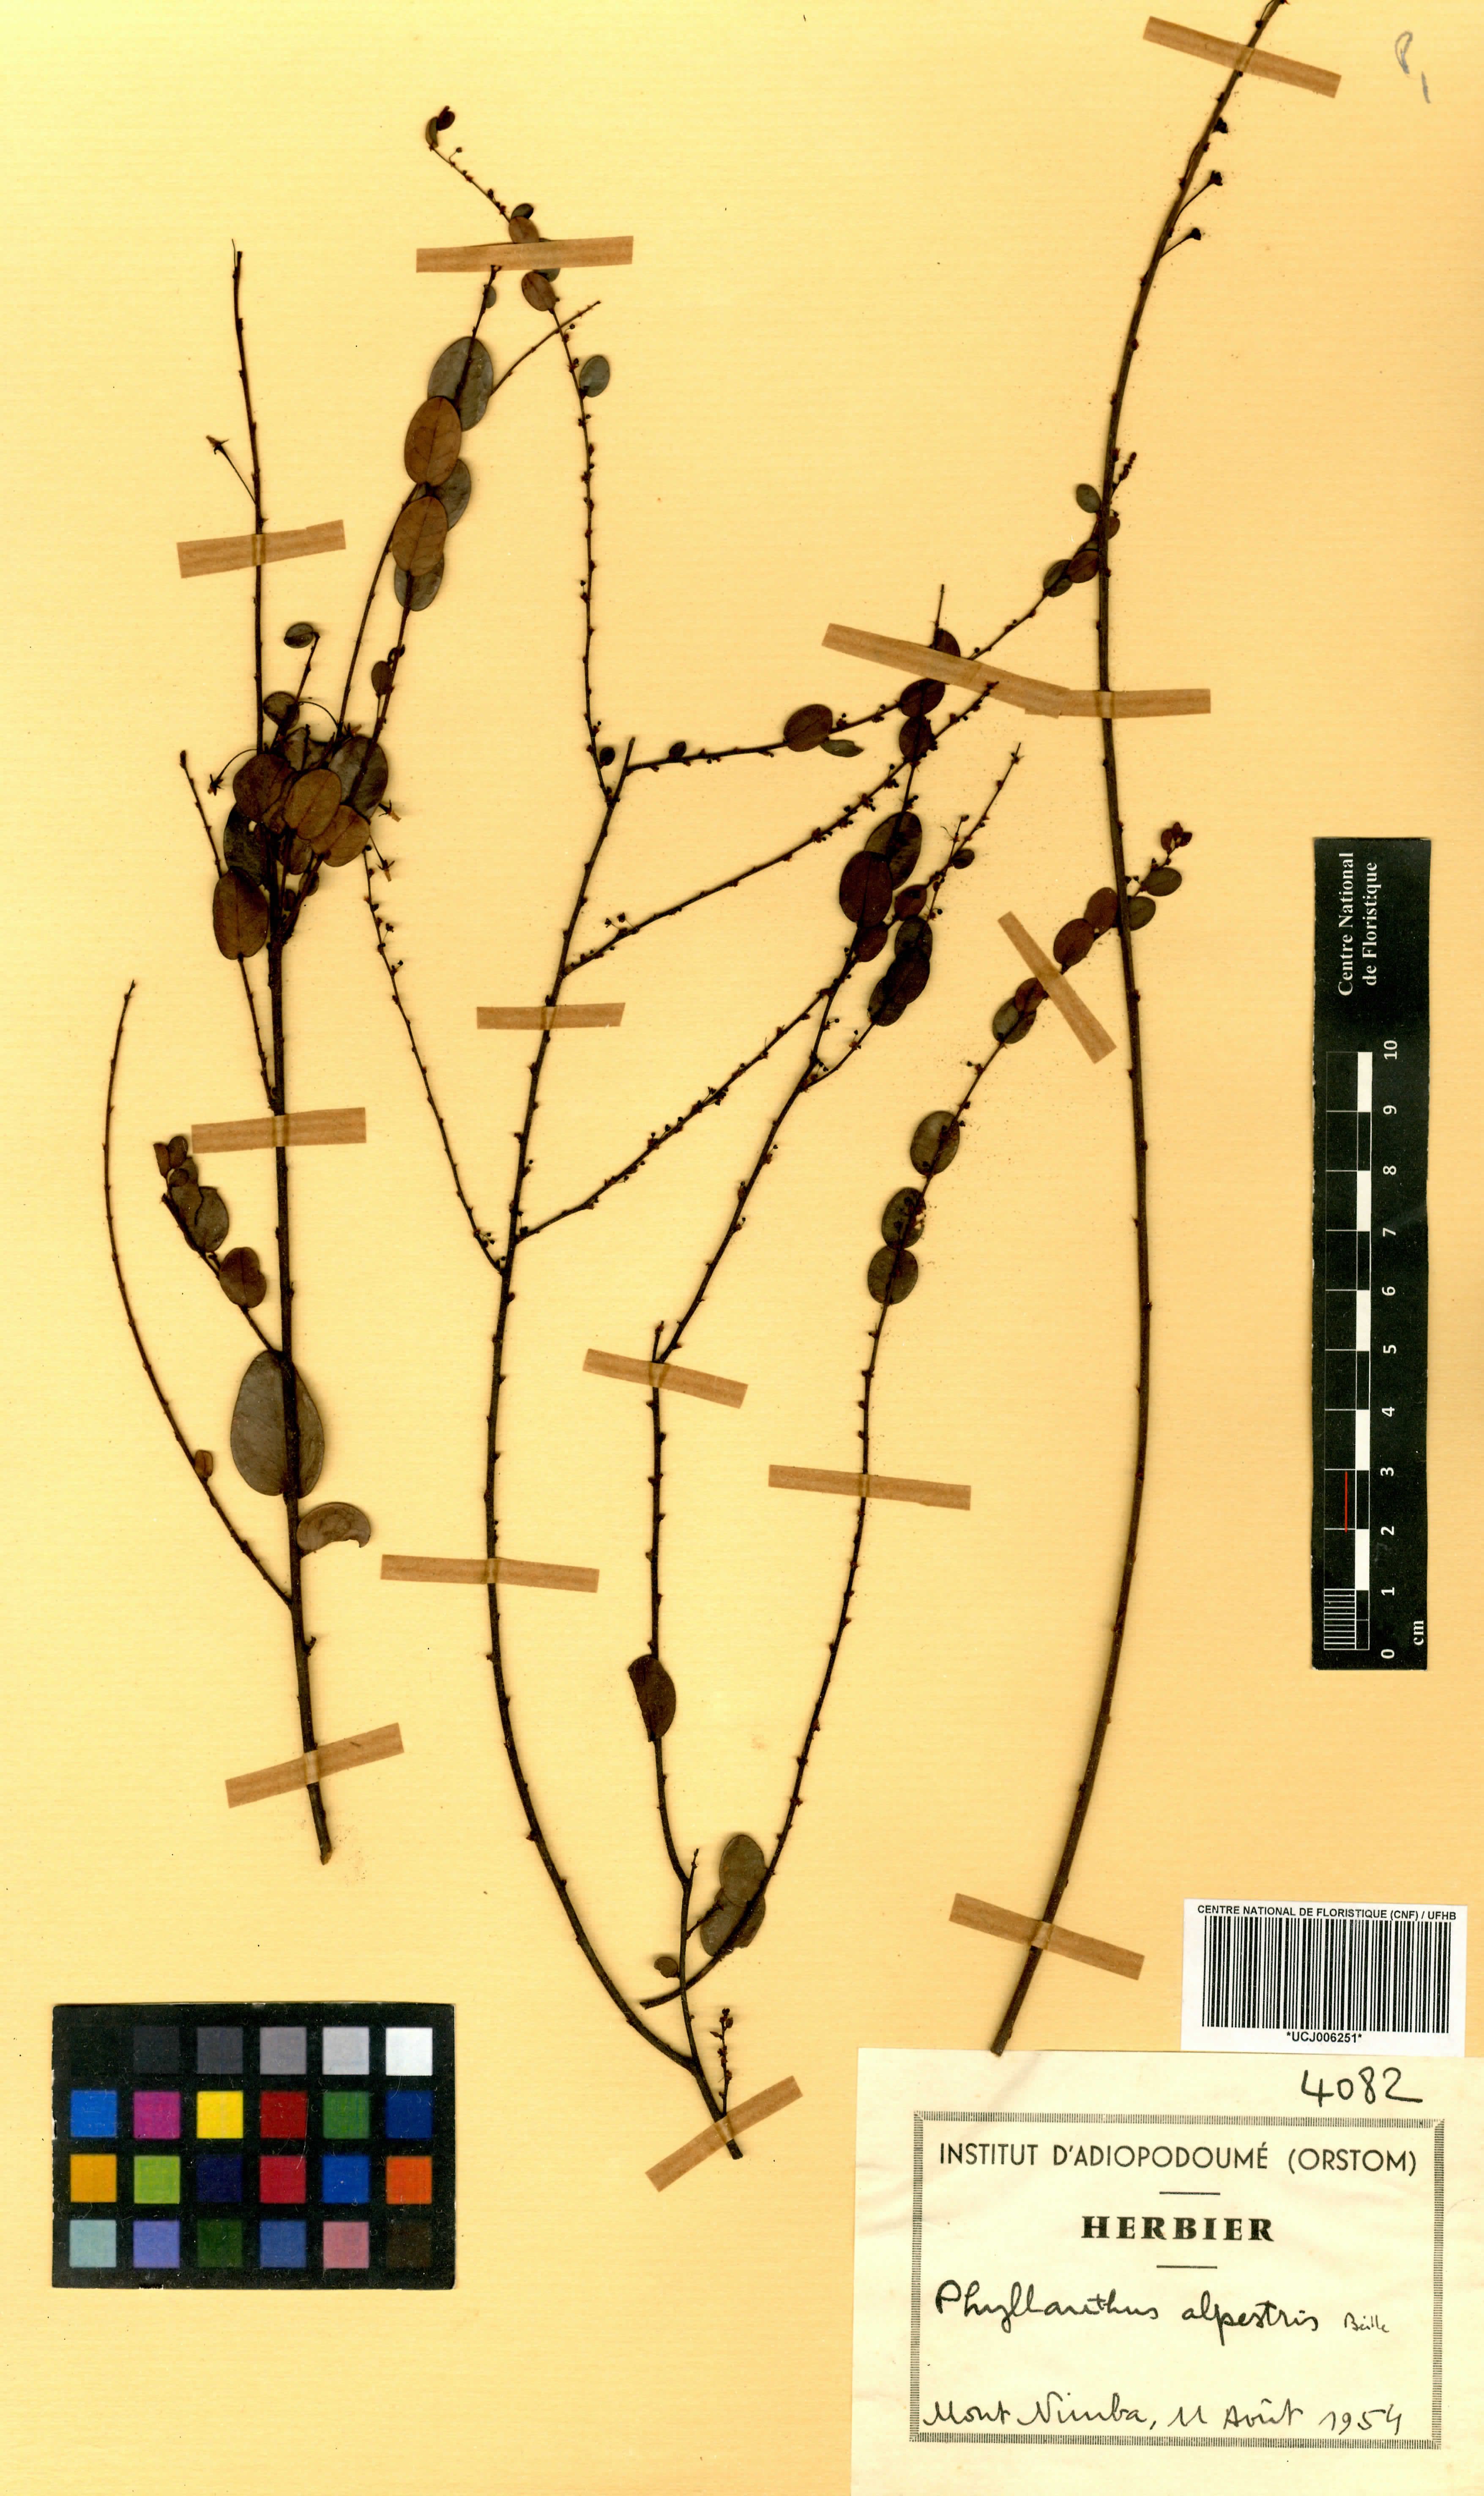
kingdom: Plantae
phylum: Tracheophyta
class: Magnoliopsida
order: Malpighiales
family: Phyllanthaceae
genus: Phyllanthus
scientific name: Phyllanthus alpestris
